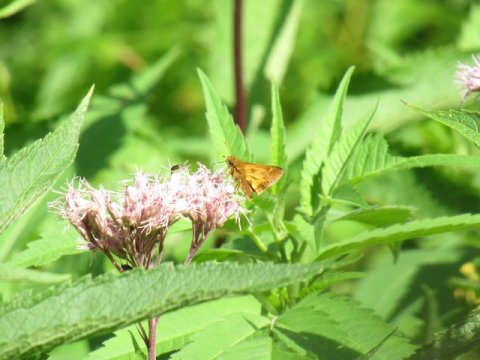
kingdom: Animalia
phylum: Arthropoda
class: Insecta
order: Lepidoptera
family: Hesperiidae
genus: Polites
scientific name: Polites coras
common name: Peck's Skipper
